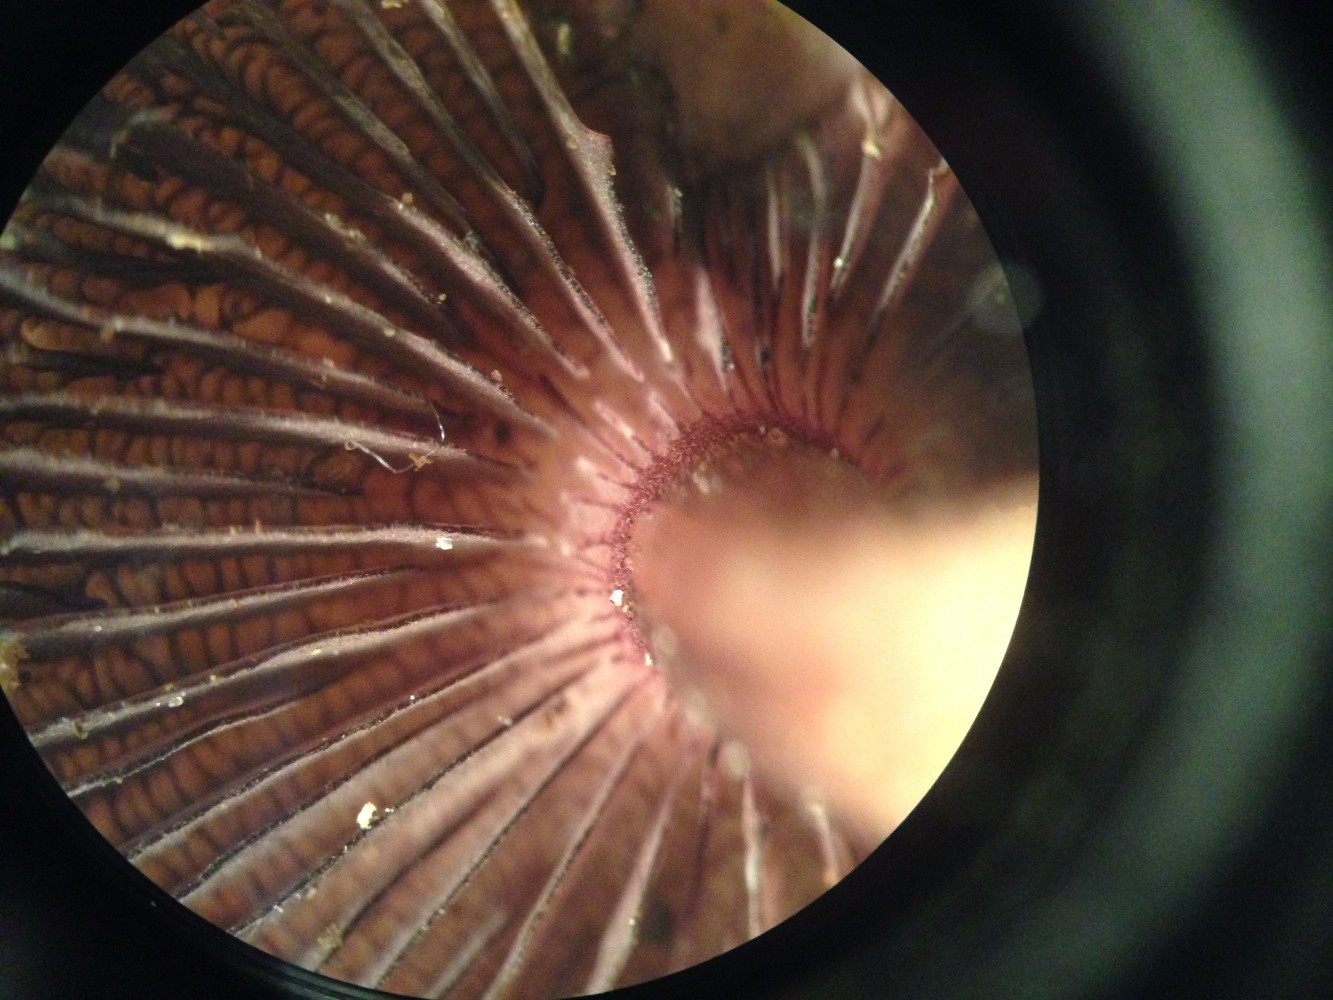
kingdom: Fungi
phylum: Basidiomycota
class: Agaricomycetes
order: Agaricales
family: Mycenaceae
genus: Mycena
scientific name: Mycena pelianthina
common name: mørkbladet huesvamp
